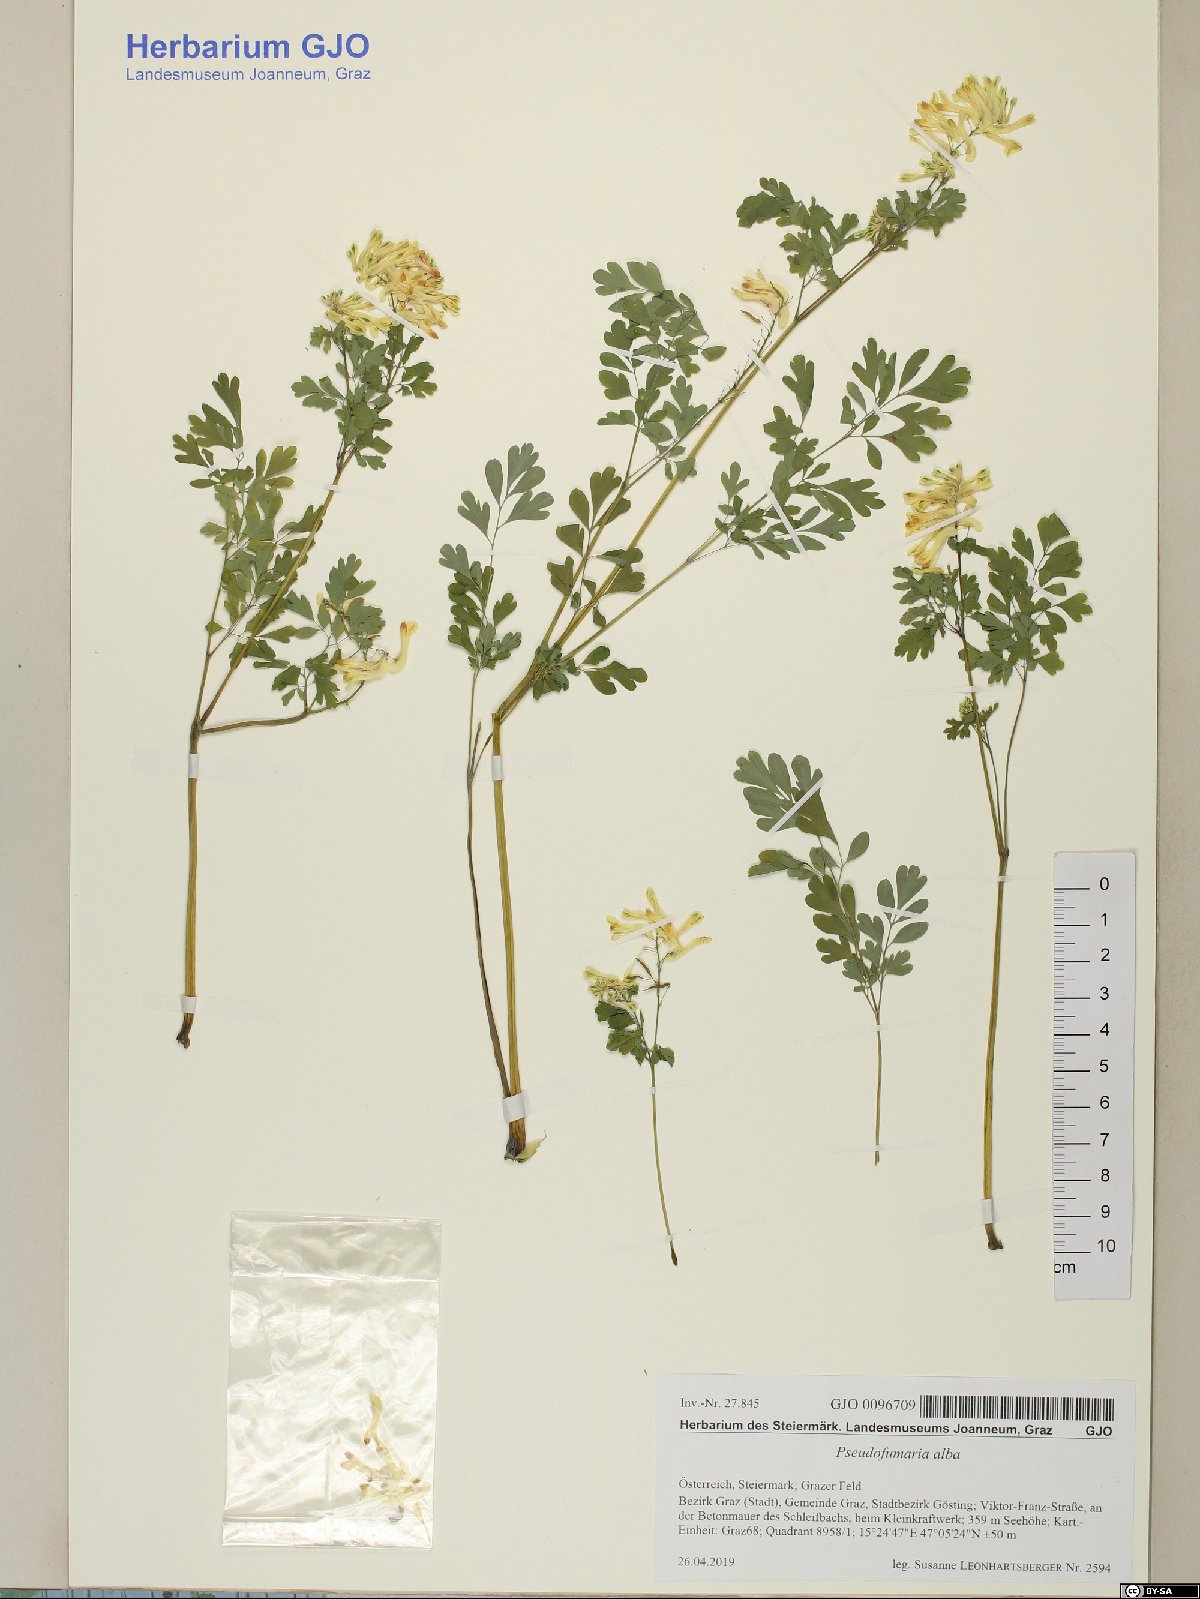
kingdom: Plantae
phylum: Tracheophyta
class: Magnoliopsida
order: Ranunculales
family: Papaveraceae
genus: Pseudofumaria
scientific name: Pseudofumaria alba
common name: Pale corydalis
